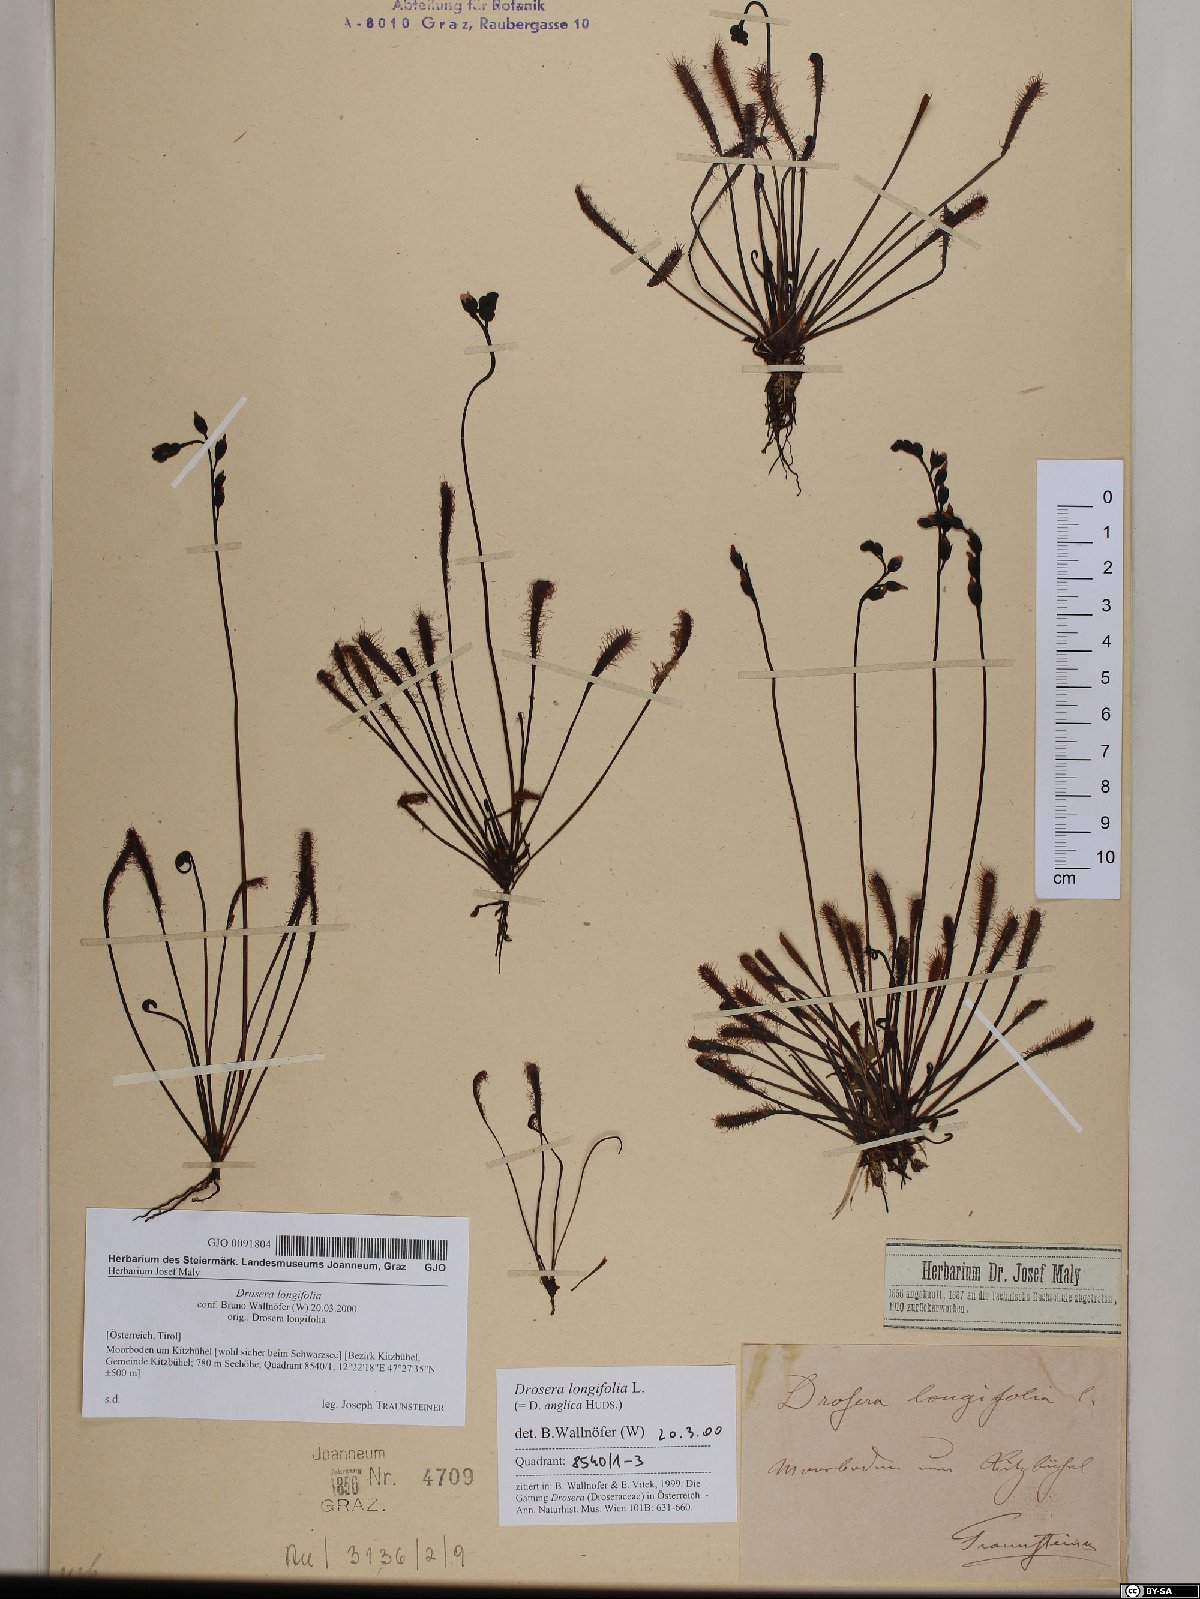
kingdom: Plantae
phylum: Tracheophyta
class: Magnoliopsida
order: Caryophyllales
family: Droseraceae
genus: Drosera
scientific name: Drosera anglica
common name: Great sundew
